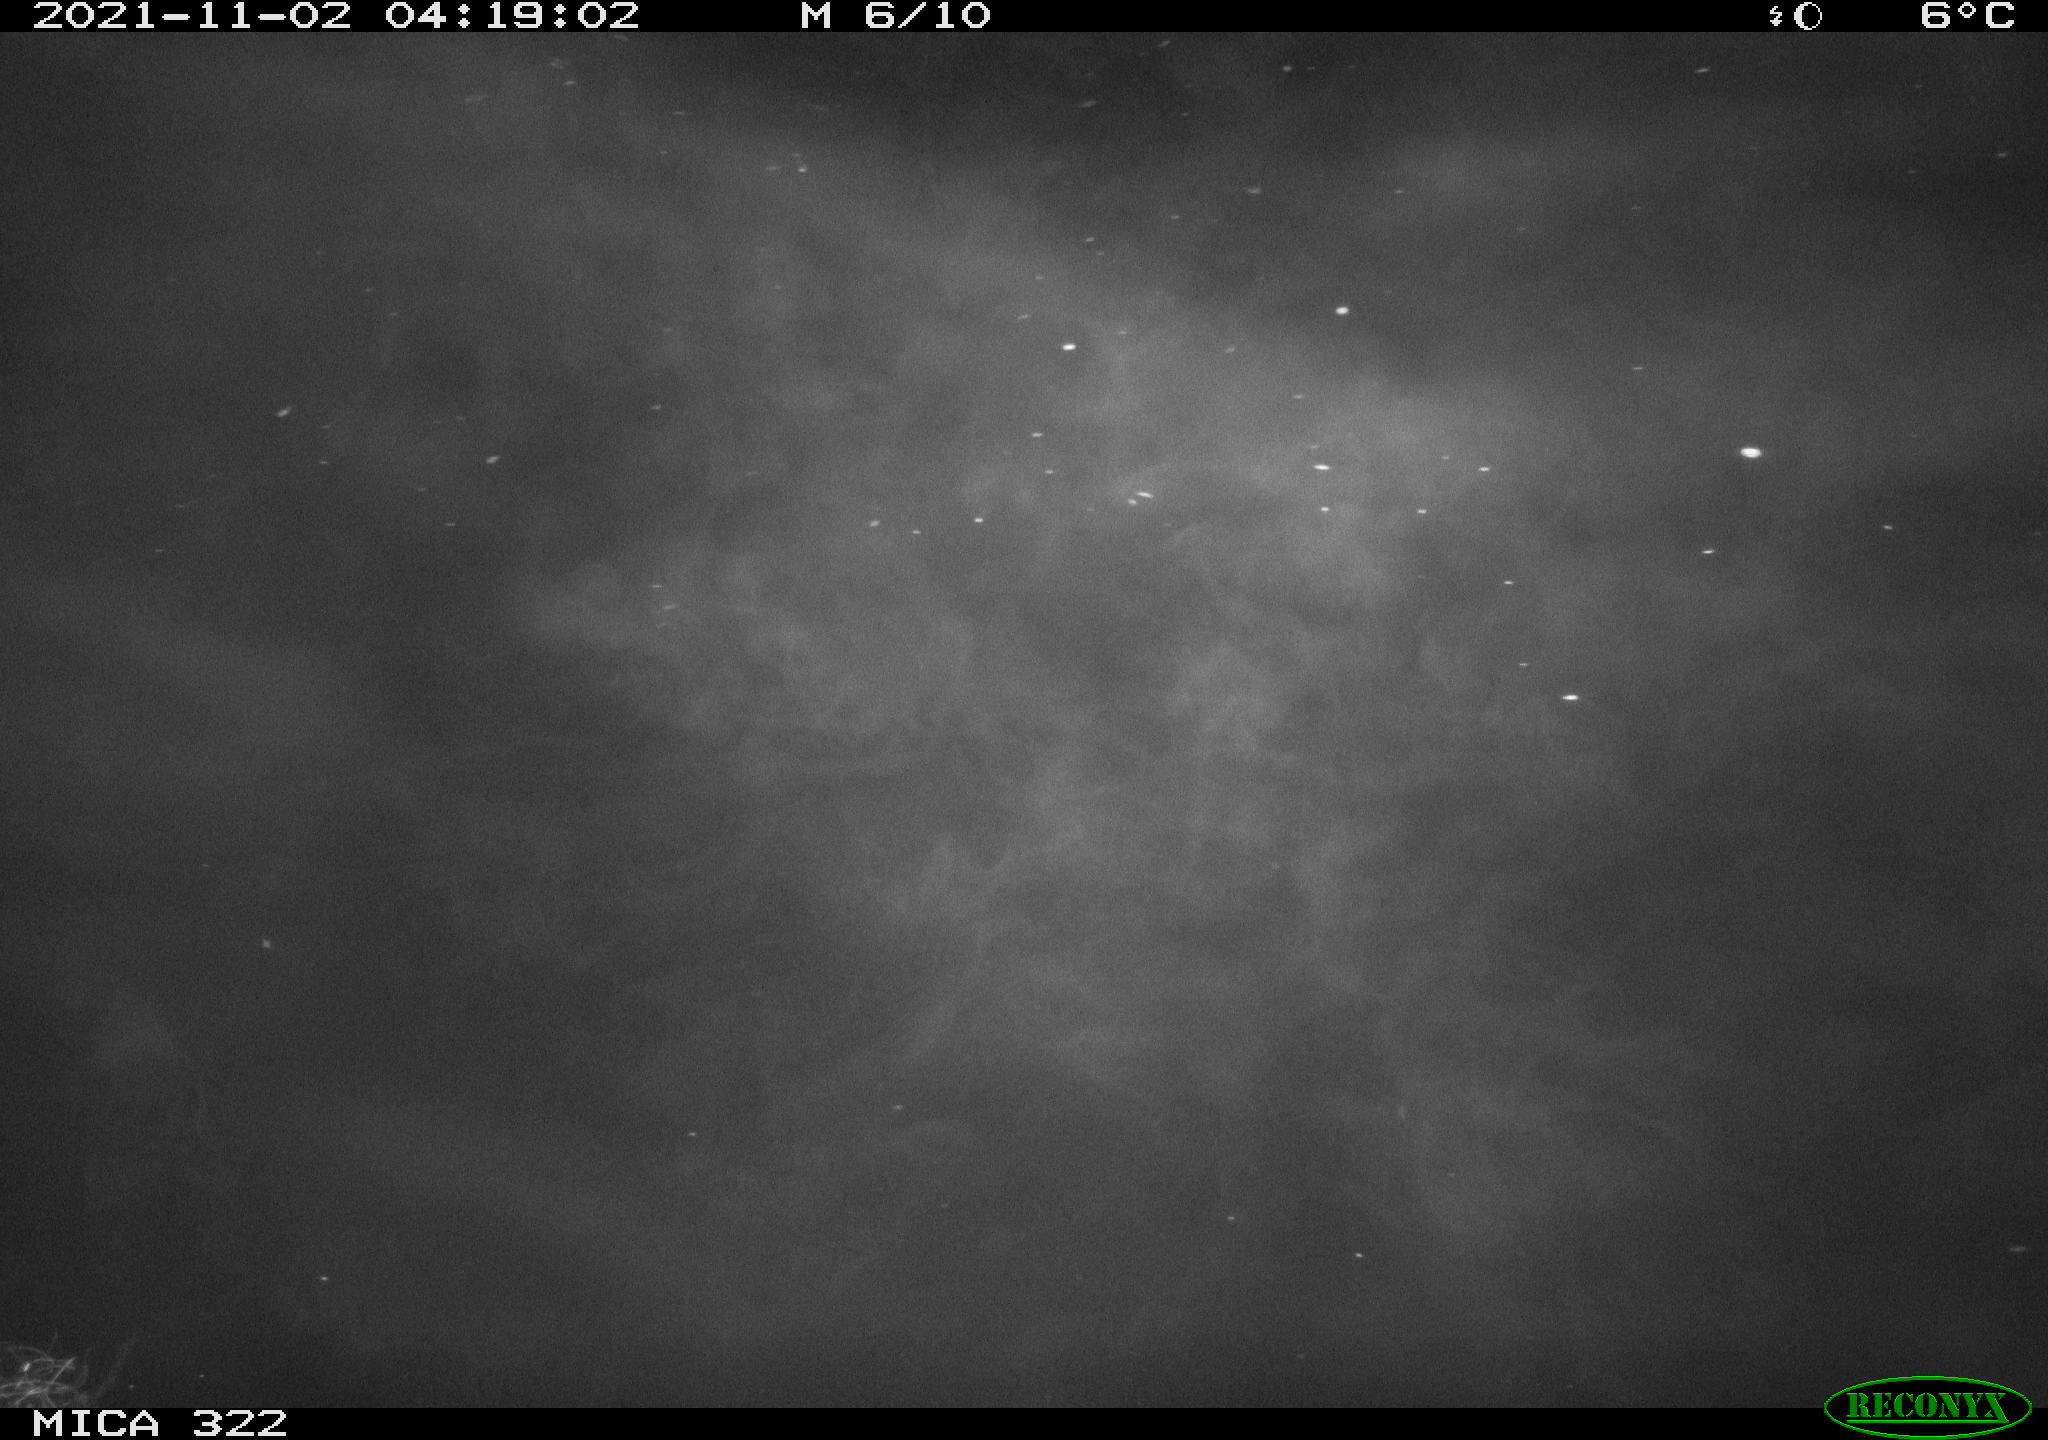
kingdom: Animalia
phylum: Chordata
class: Mammalia
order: Rodentia
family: Muridae
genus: Rattus
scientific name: Rattus norvegicus
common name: Brown rat
